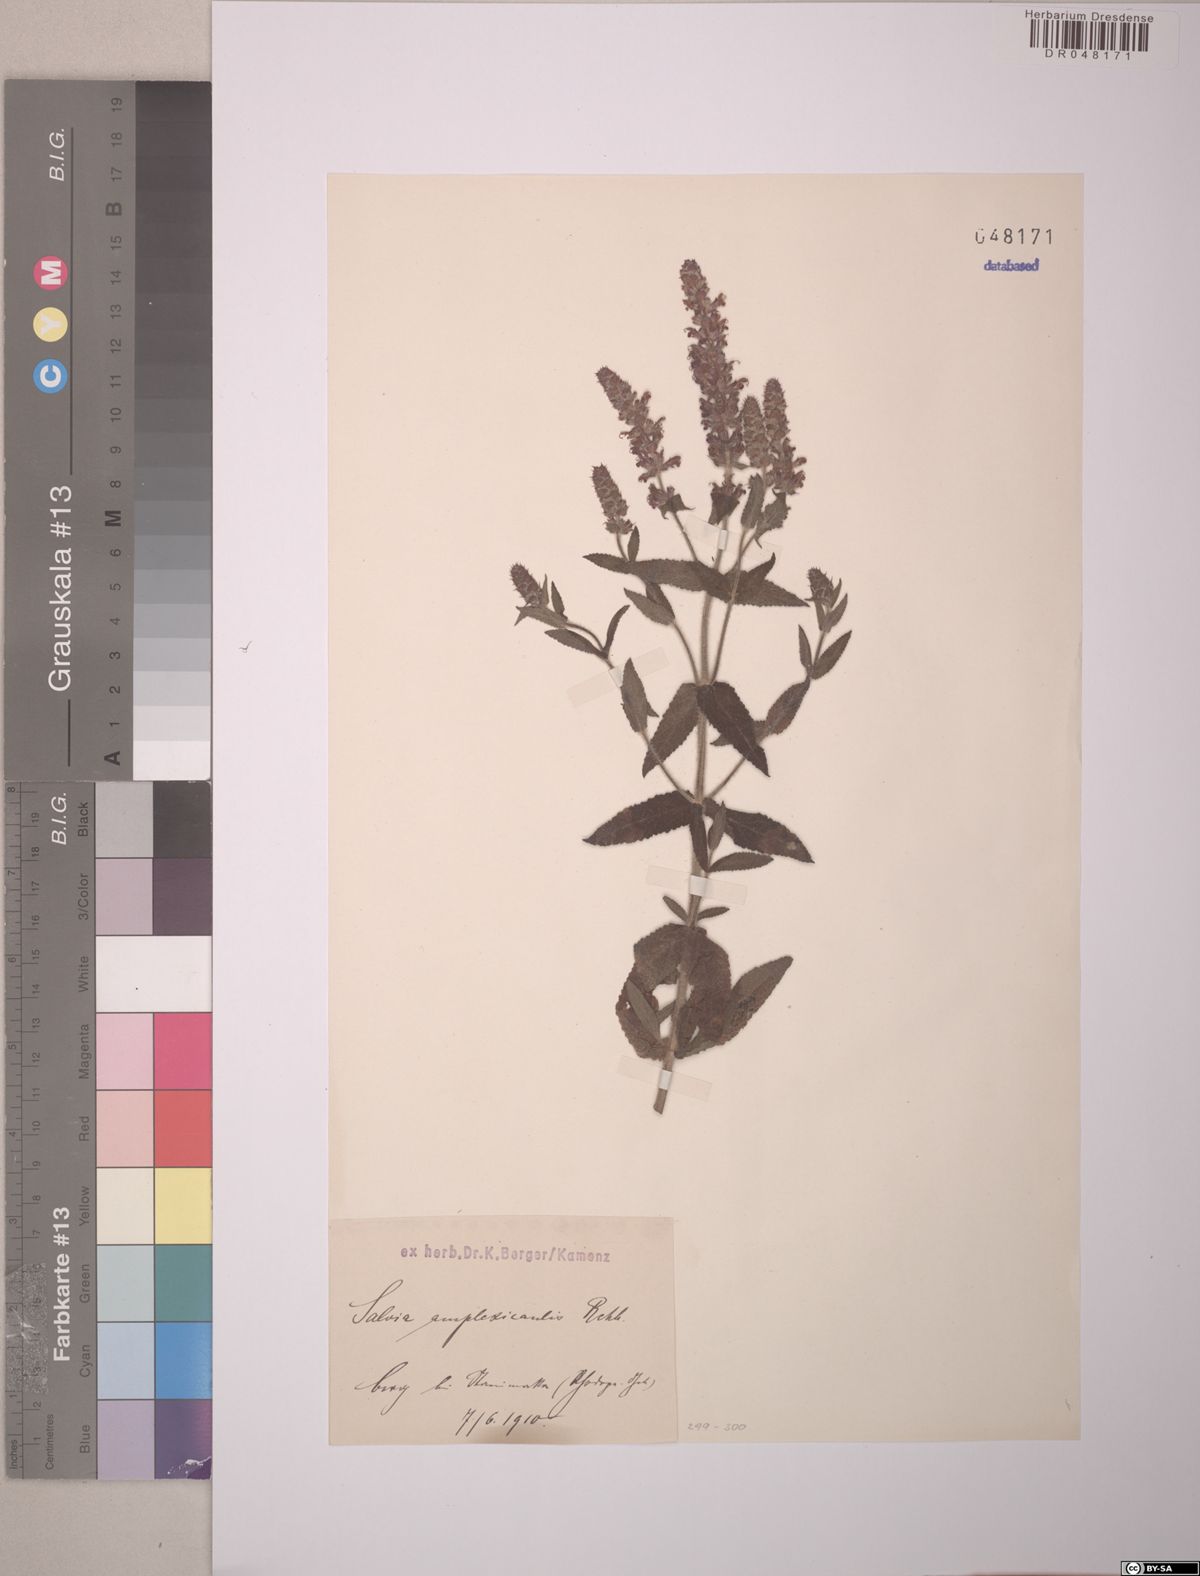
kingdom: Plantae
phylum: Tracheophyta
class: Magnoliopsida
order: Lamiales
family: Lamiaceae
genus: Salvia
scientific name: Salvia amplexicaulis
